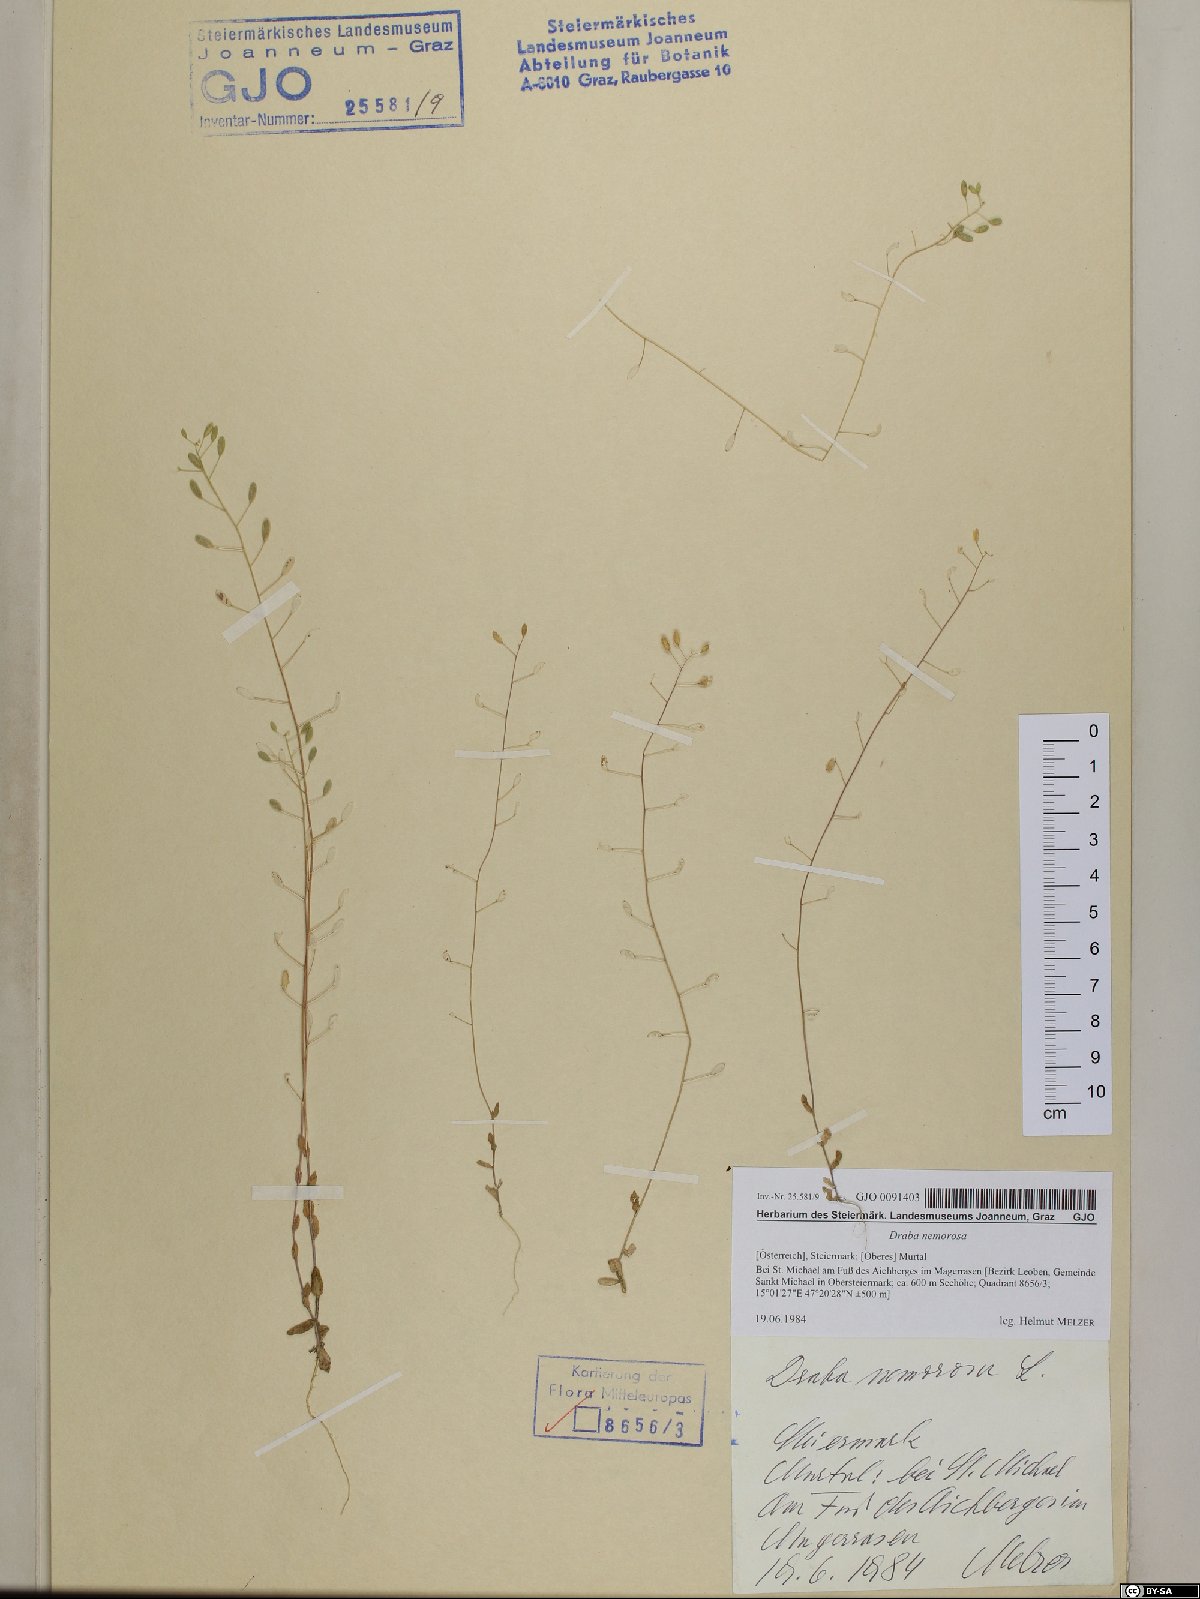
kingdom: Plantae
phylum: Tracheophyta
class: Magnoliopsida
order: Brassicales
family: Brassicaceae
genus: Draba
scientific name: Draba nemorosa
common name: Wood whitlow-grass
